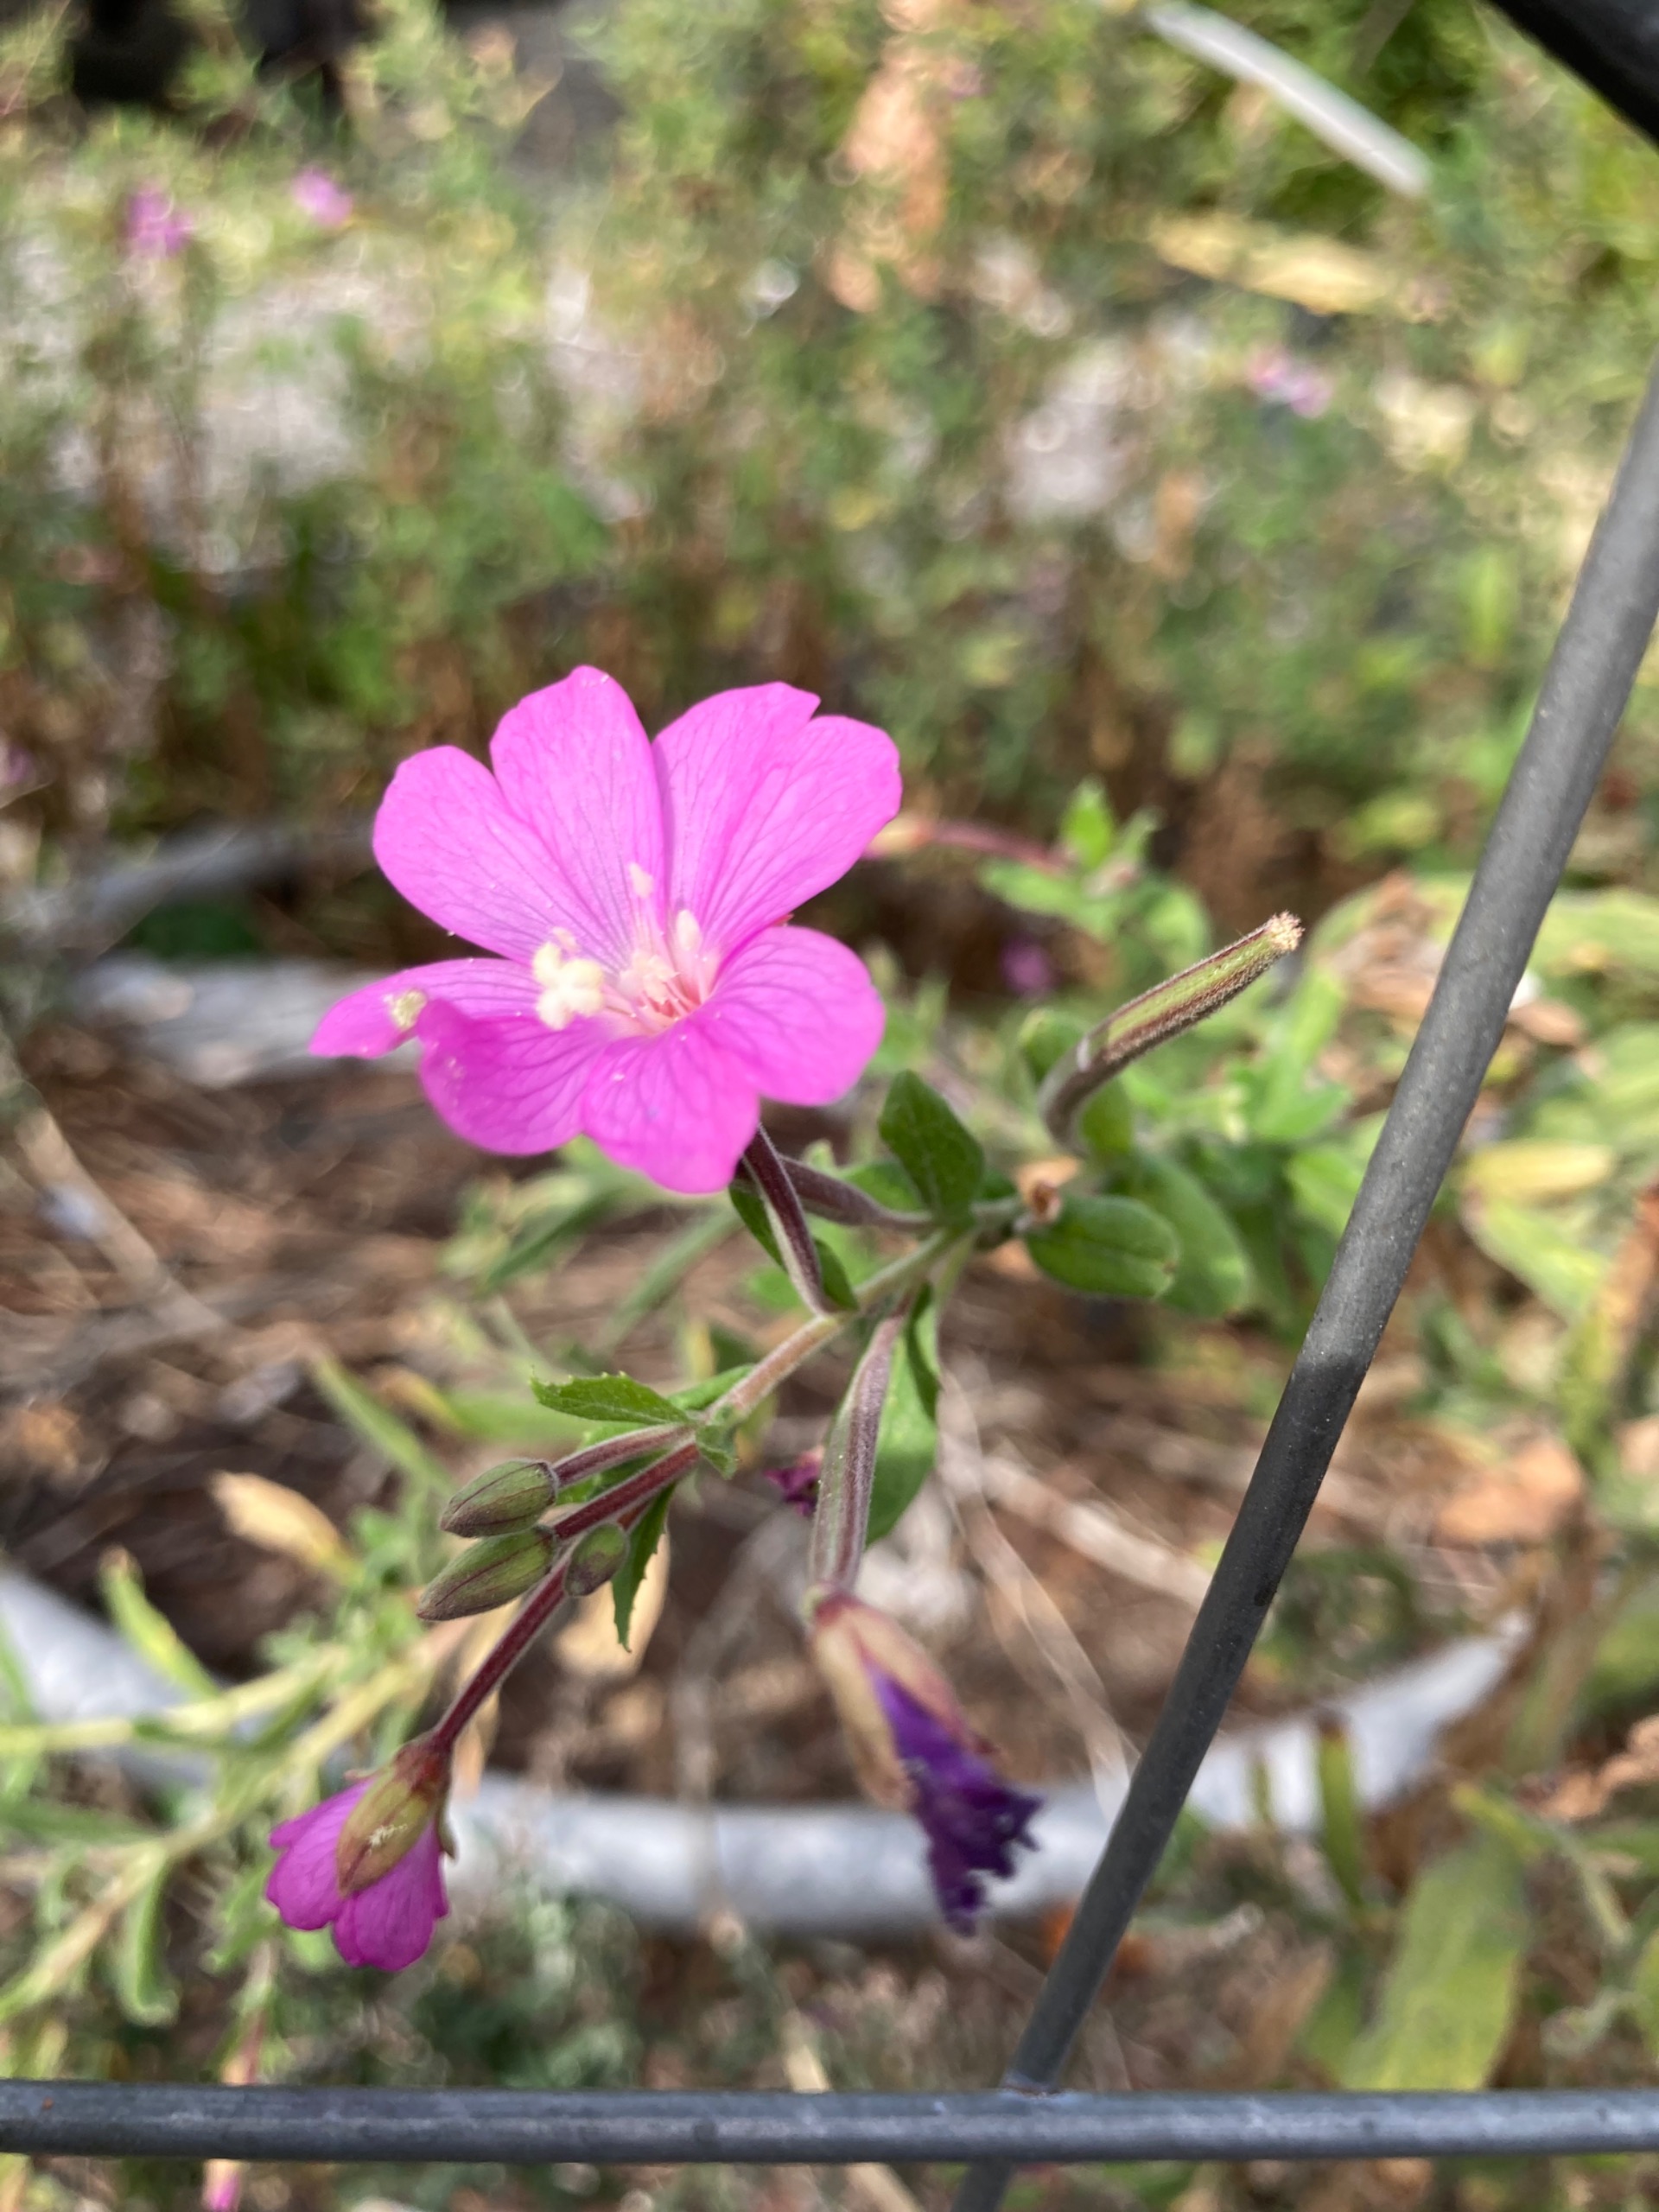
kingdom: Plantae
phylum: Tracheophyta
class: Magnoliopsida
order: Myrtales
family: Onagraceae
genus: Epilobium
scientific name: Epilobium hirsutum
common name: Lådden dueurt
